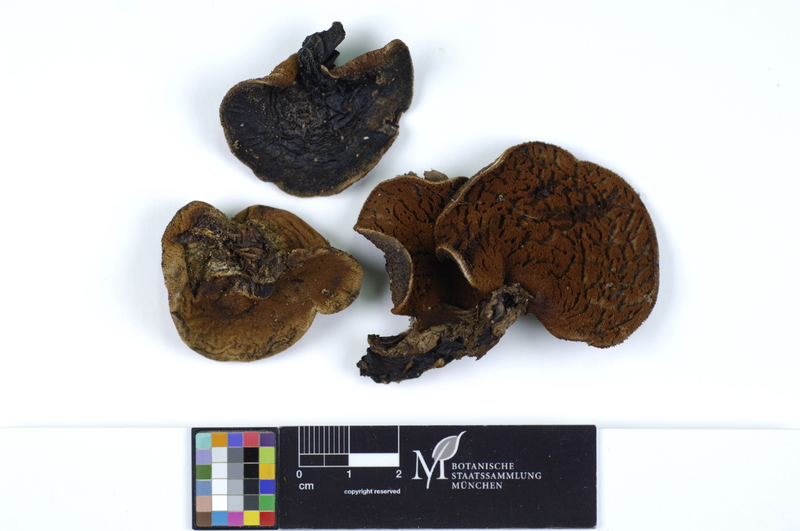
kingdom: Plantae
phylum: Tracheophyta
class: Magnoliopsida
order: Fagales
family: Fagaceae
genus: Quercus
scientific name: Quercus
